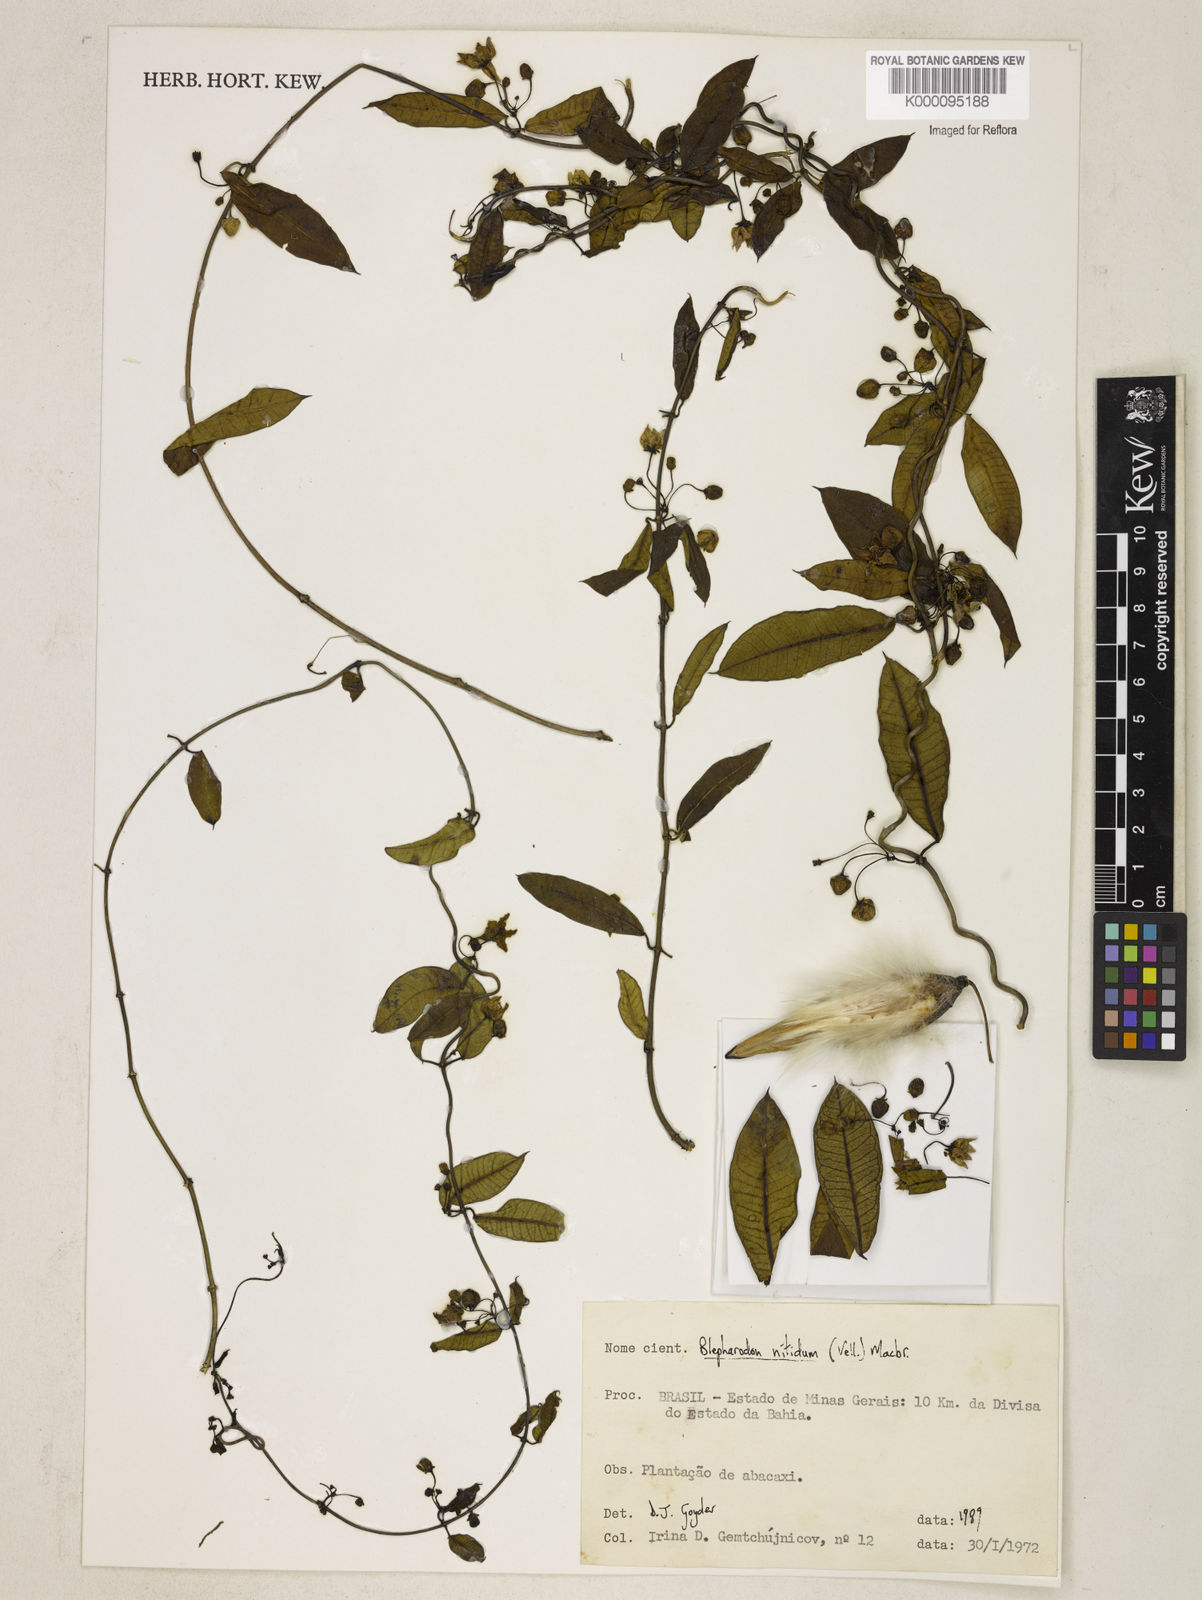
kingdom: Plantae
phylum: Tracheophyta
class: Magnoliopsida
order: Gentianales
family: Apocynaceae
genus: Blepharodon
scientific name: Blepharodon pictum
